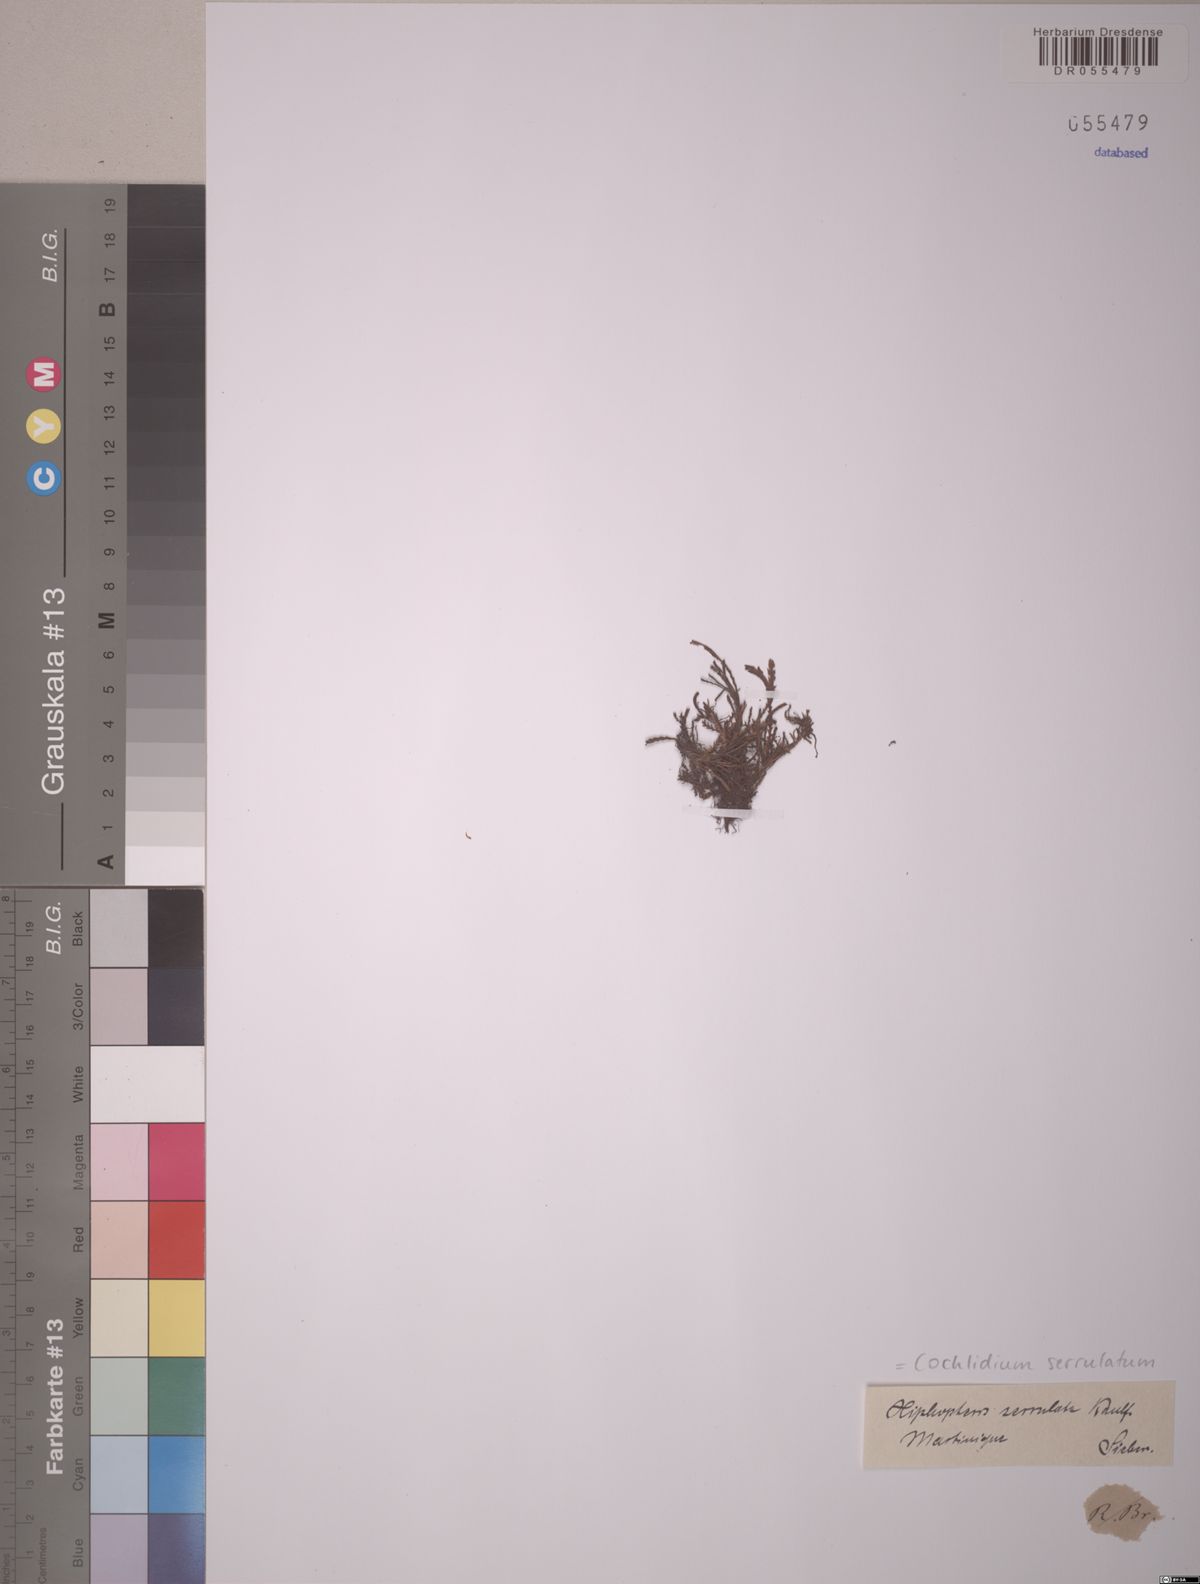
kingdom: Plantae
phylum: Tracheophyta
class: Polypodiopsida
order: Polypodiales
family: Polypodiaceae
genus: Cochlidium
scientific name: Cochlidium serrulatum
